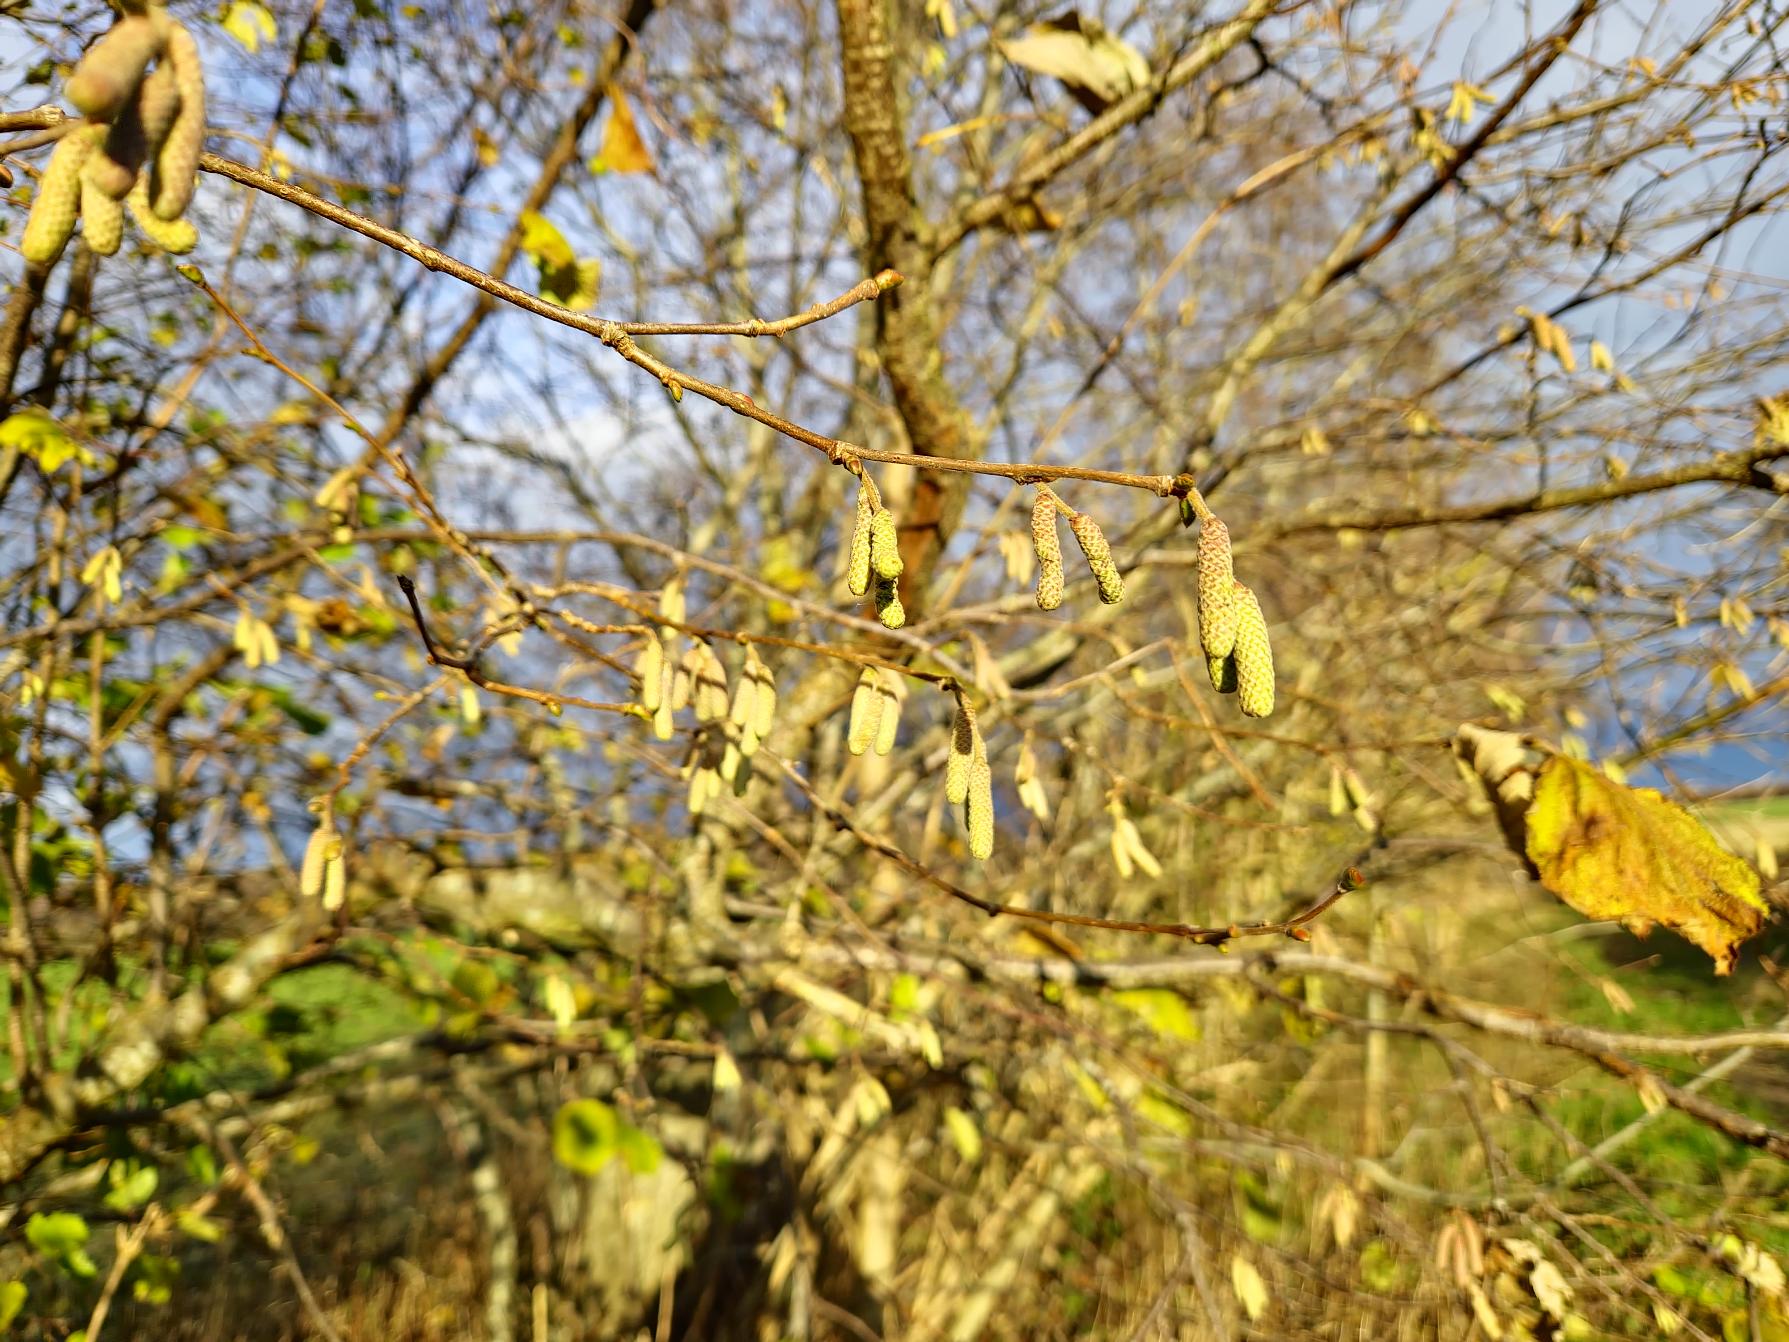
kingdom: Plantae
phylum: Tracheophyta
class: Magnoliopsida
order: Fagales
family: Betulaceae
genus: Corylus
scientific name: Corylus avellana
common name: Hassel
